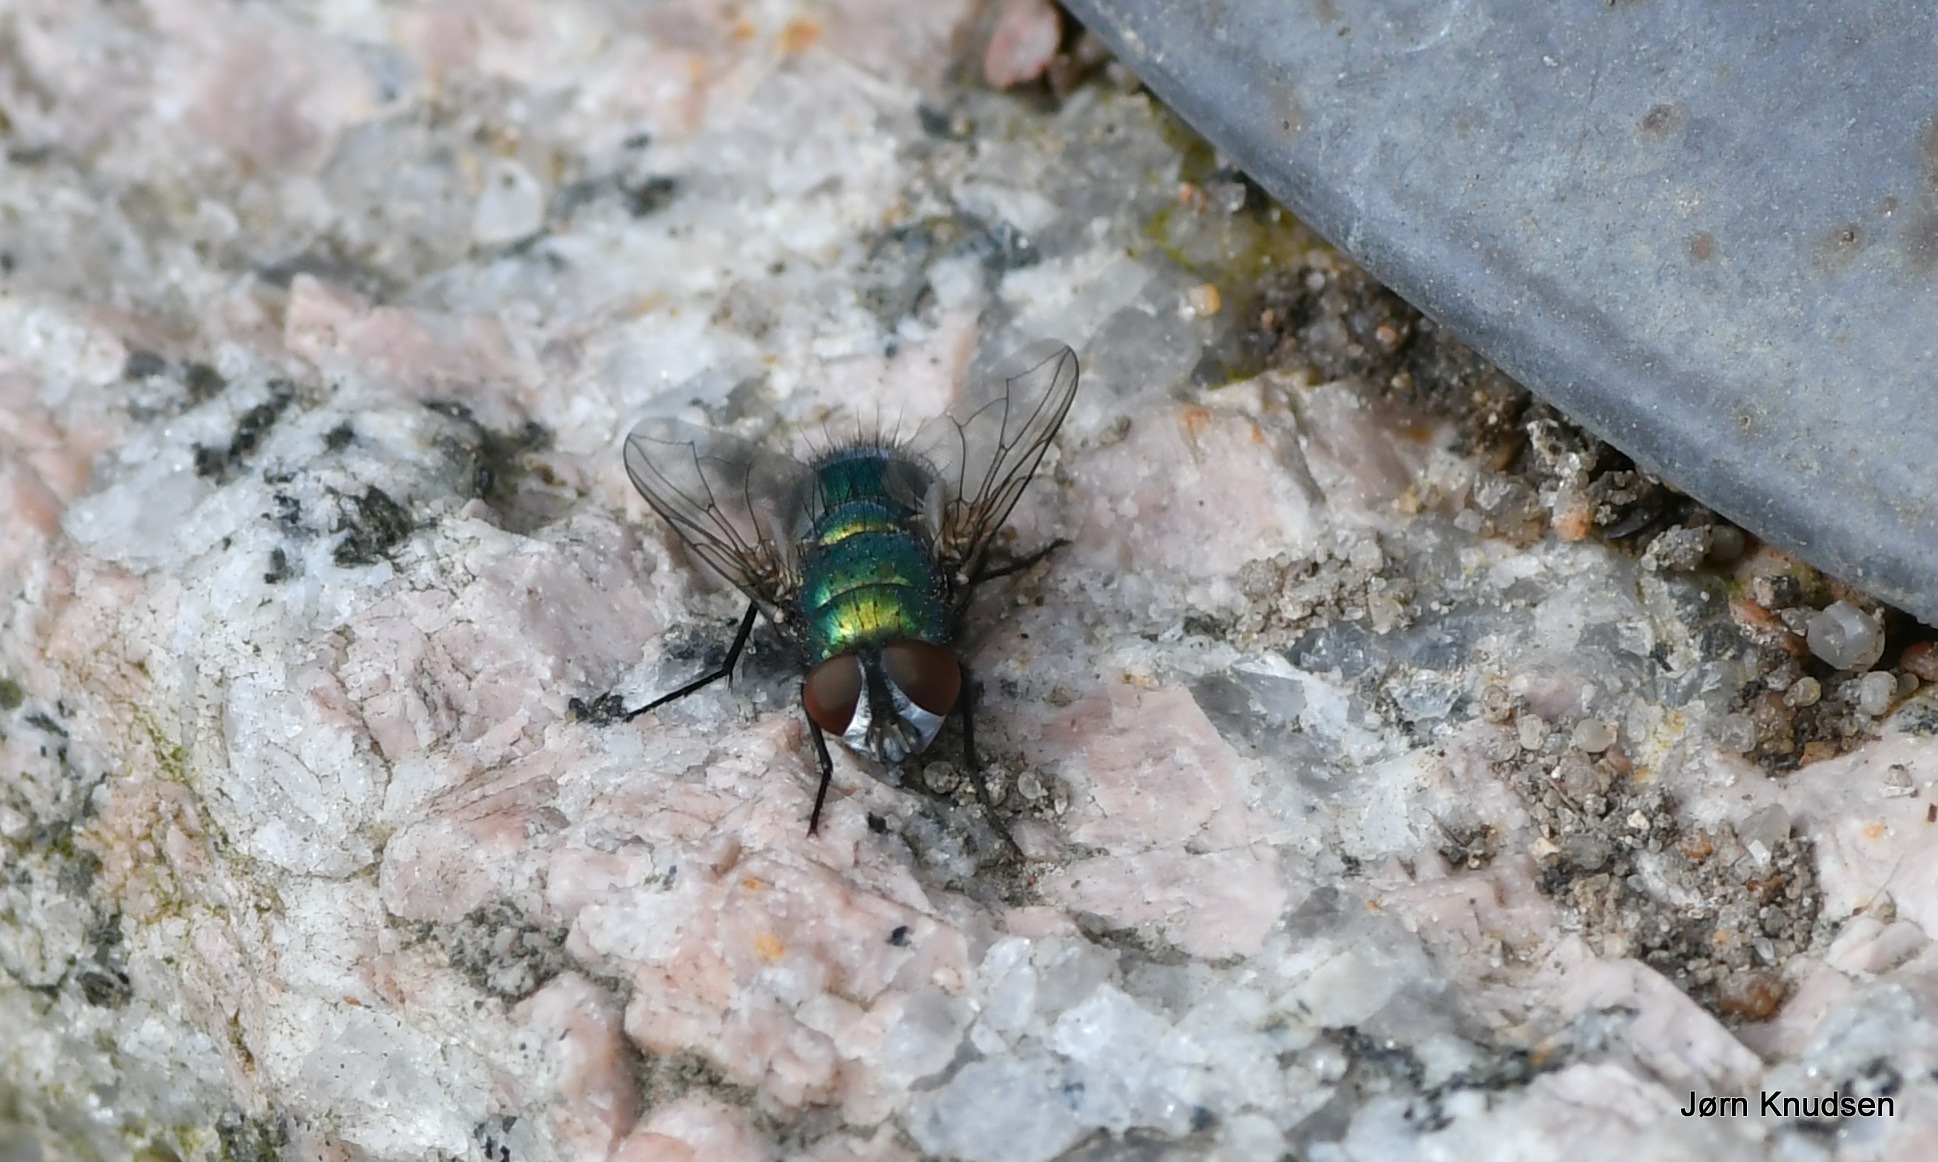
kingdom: Animalia
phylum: Arthropoda
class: Insecta
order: Diptera
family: Calliphoridae
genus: Lucilia
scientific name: Lucilia sericata
